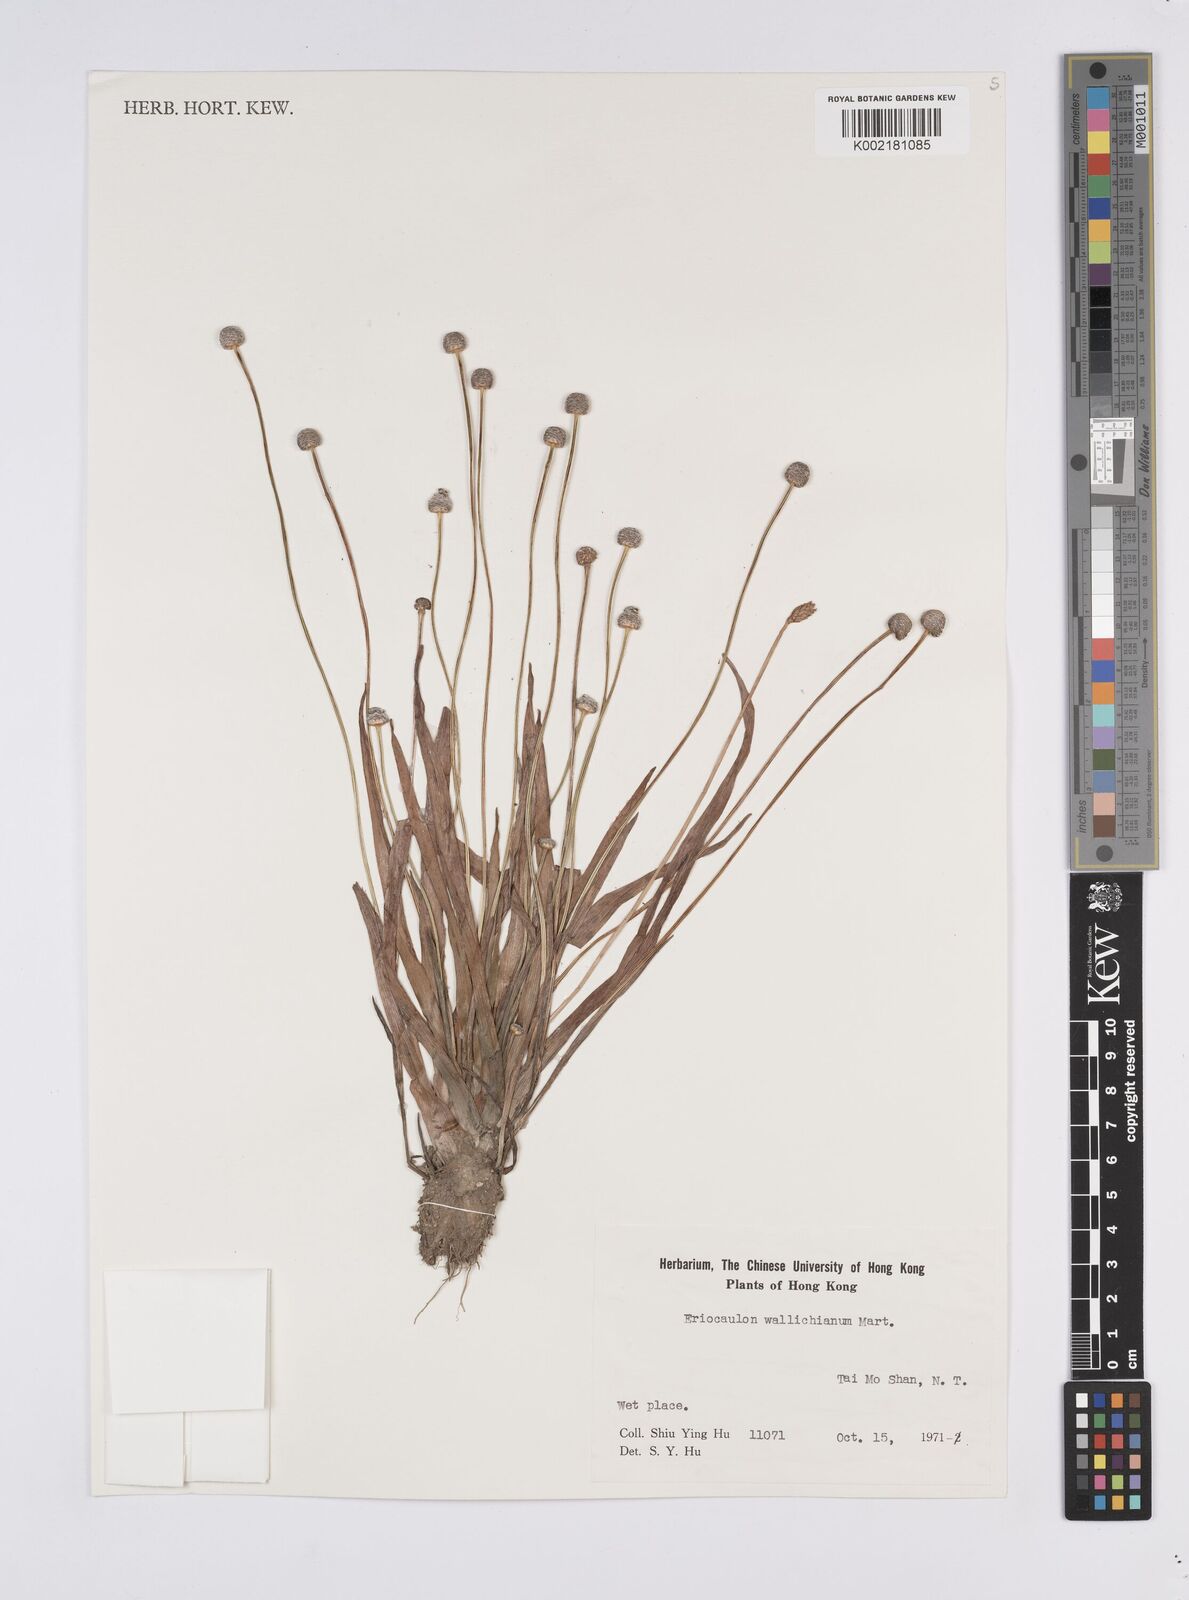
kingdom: Plantae
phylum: Tracheophyta
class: Liliopsida
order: Poales
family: Eriocaulaceae
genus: Eriocaulon
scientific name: Eriocaulon sexangulare
